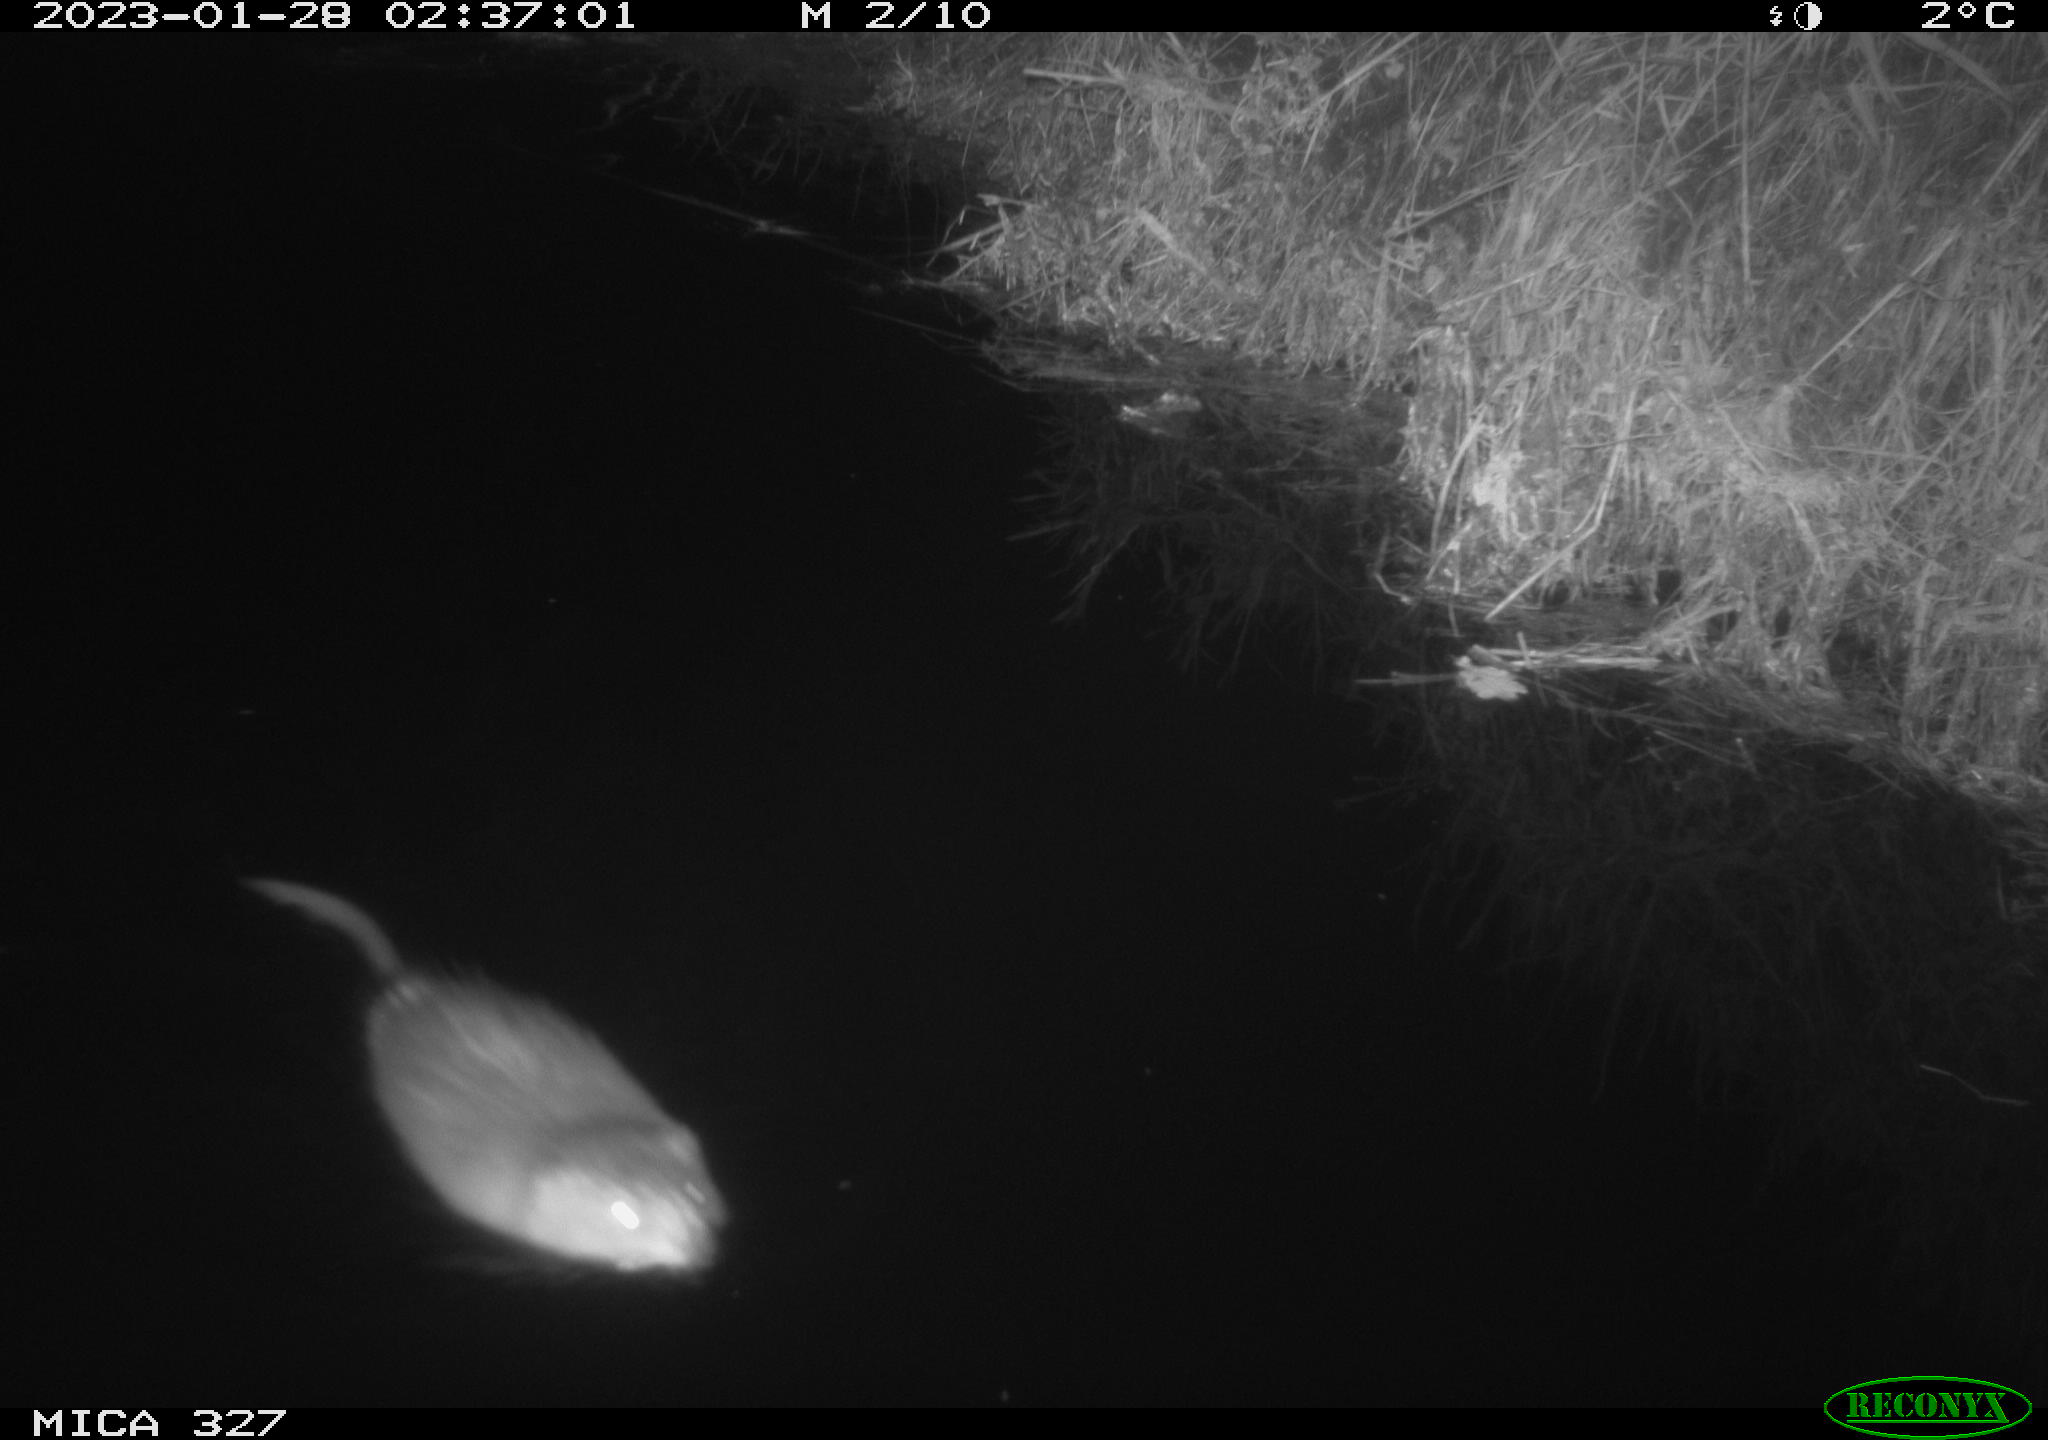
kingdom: Animalia
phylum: Chordata
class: Mammalia
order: Rodentia
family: Cricetidae
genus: Ondatra
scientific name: Ondatra zibethicus
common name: Muskrat
